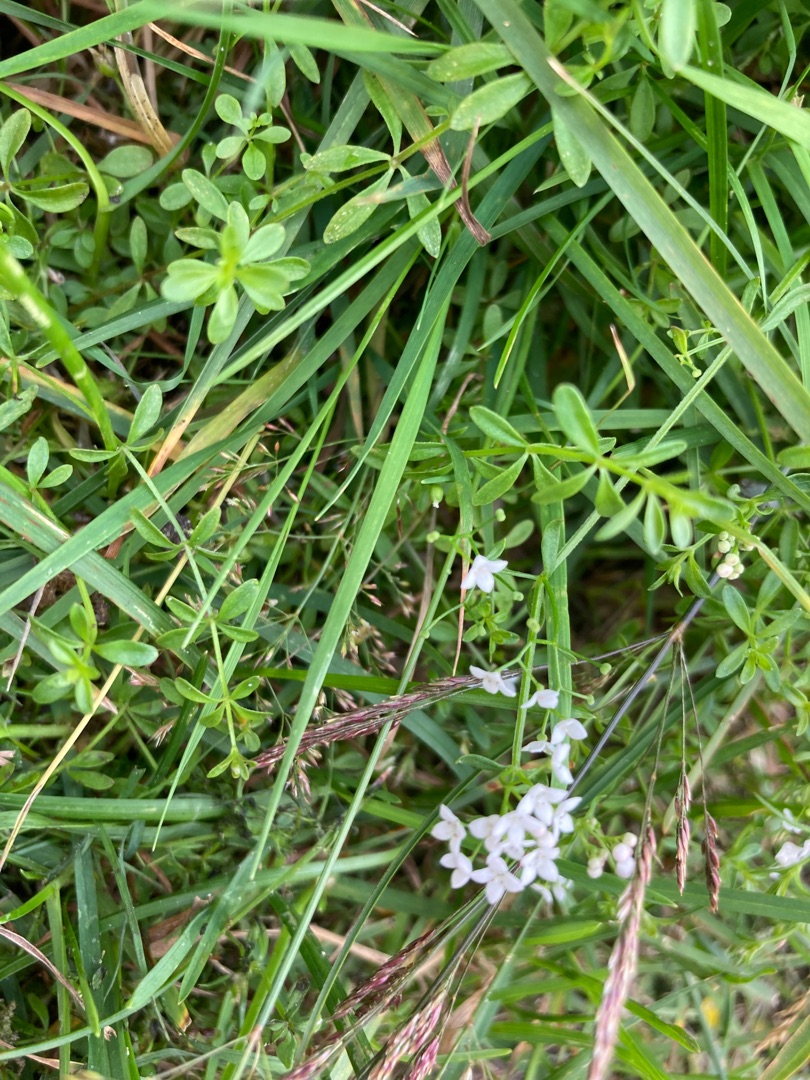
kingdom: Plantae
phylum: Tracheophyta
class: Magnoliopsida
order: Gentianales
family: Rubiaceae
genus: Galium
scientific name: Galium palustre
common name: Kær-snerre
